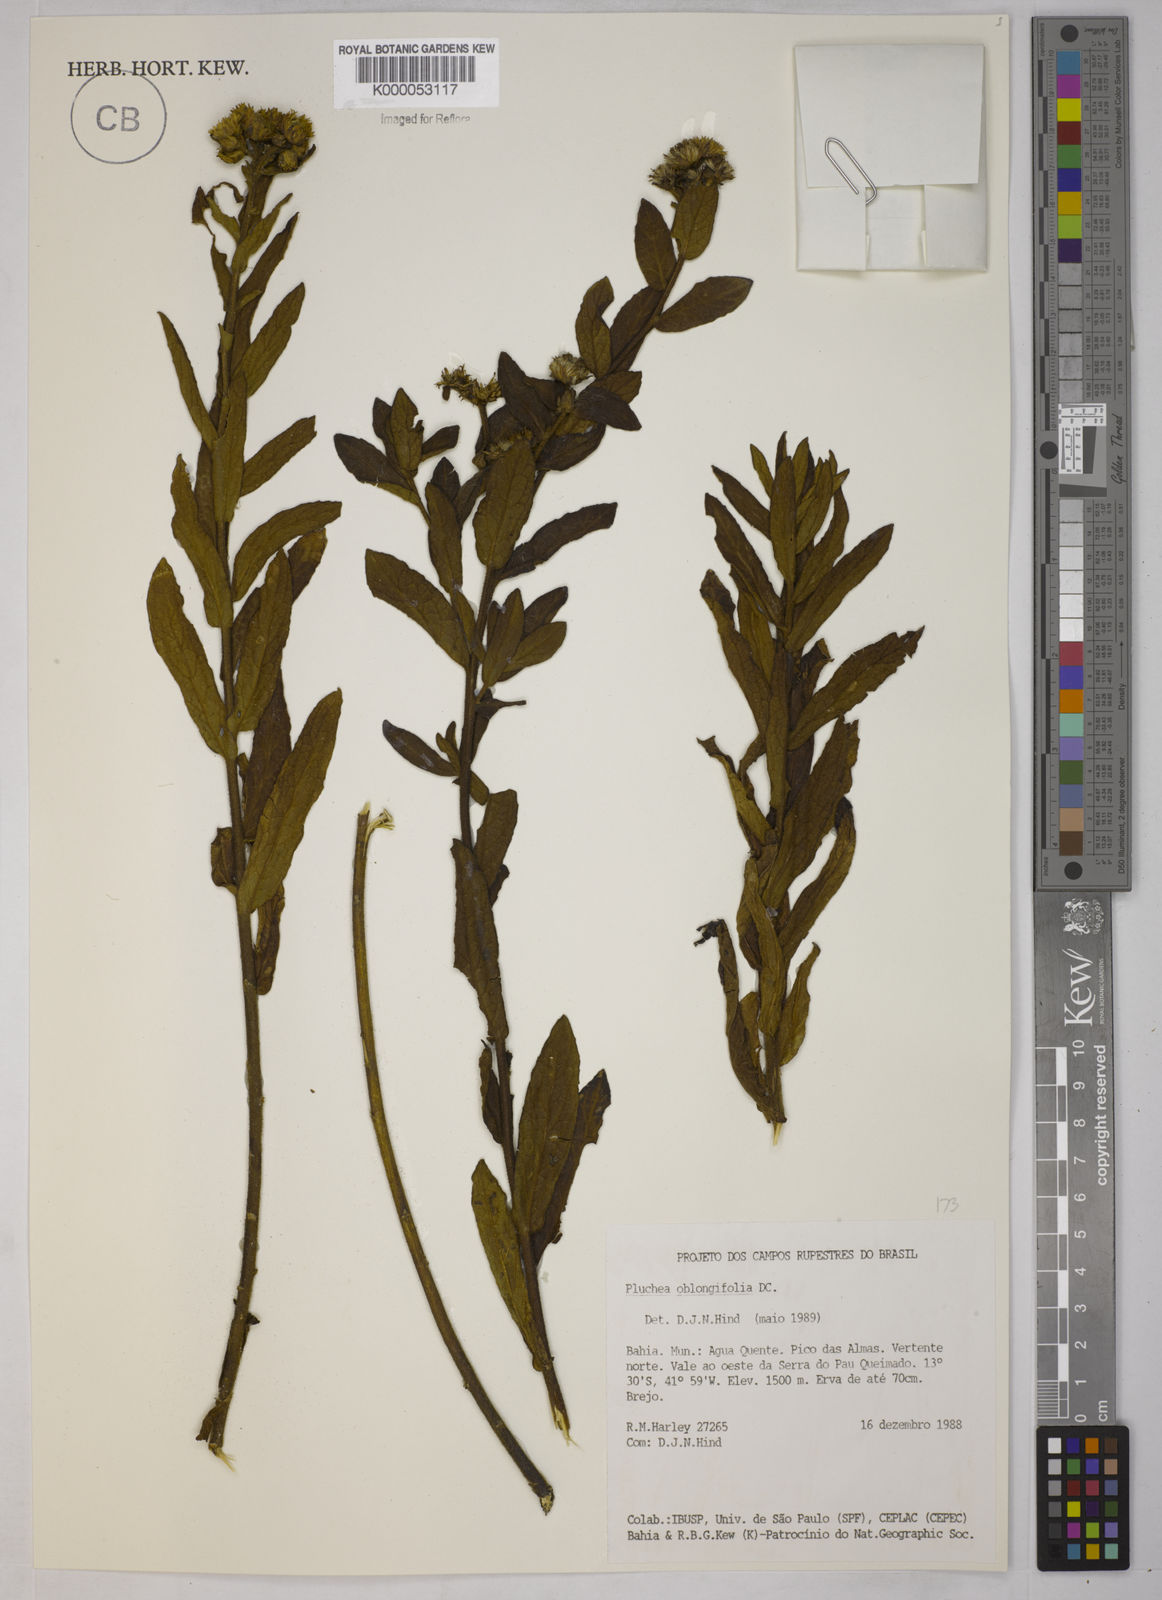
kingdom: Plantae
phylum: Tracheophyta
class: Magnoliopsida
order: Asterales
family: Asteraceae
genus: Pluchea
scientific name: Pluchea oblongifolia
